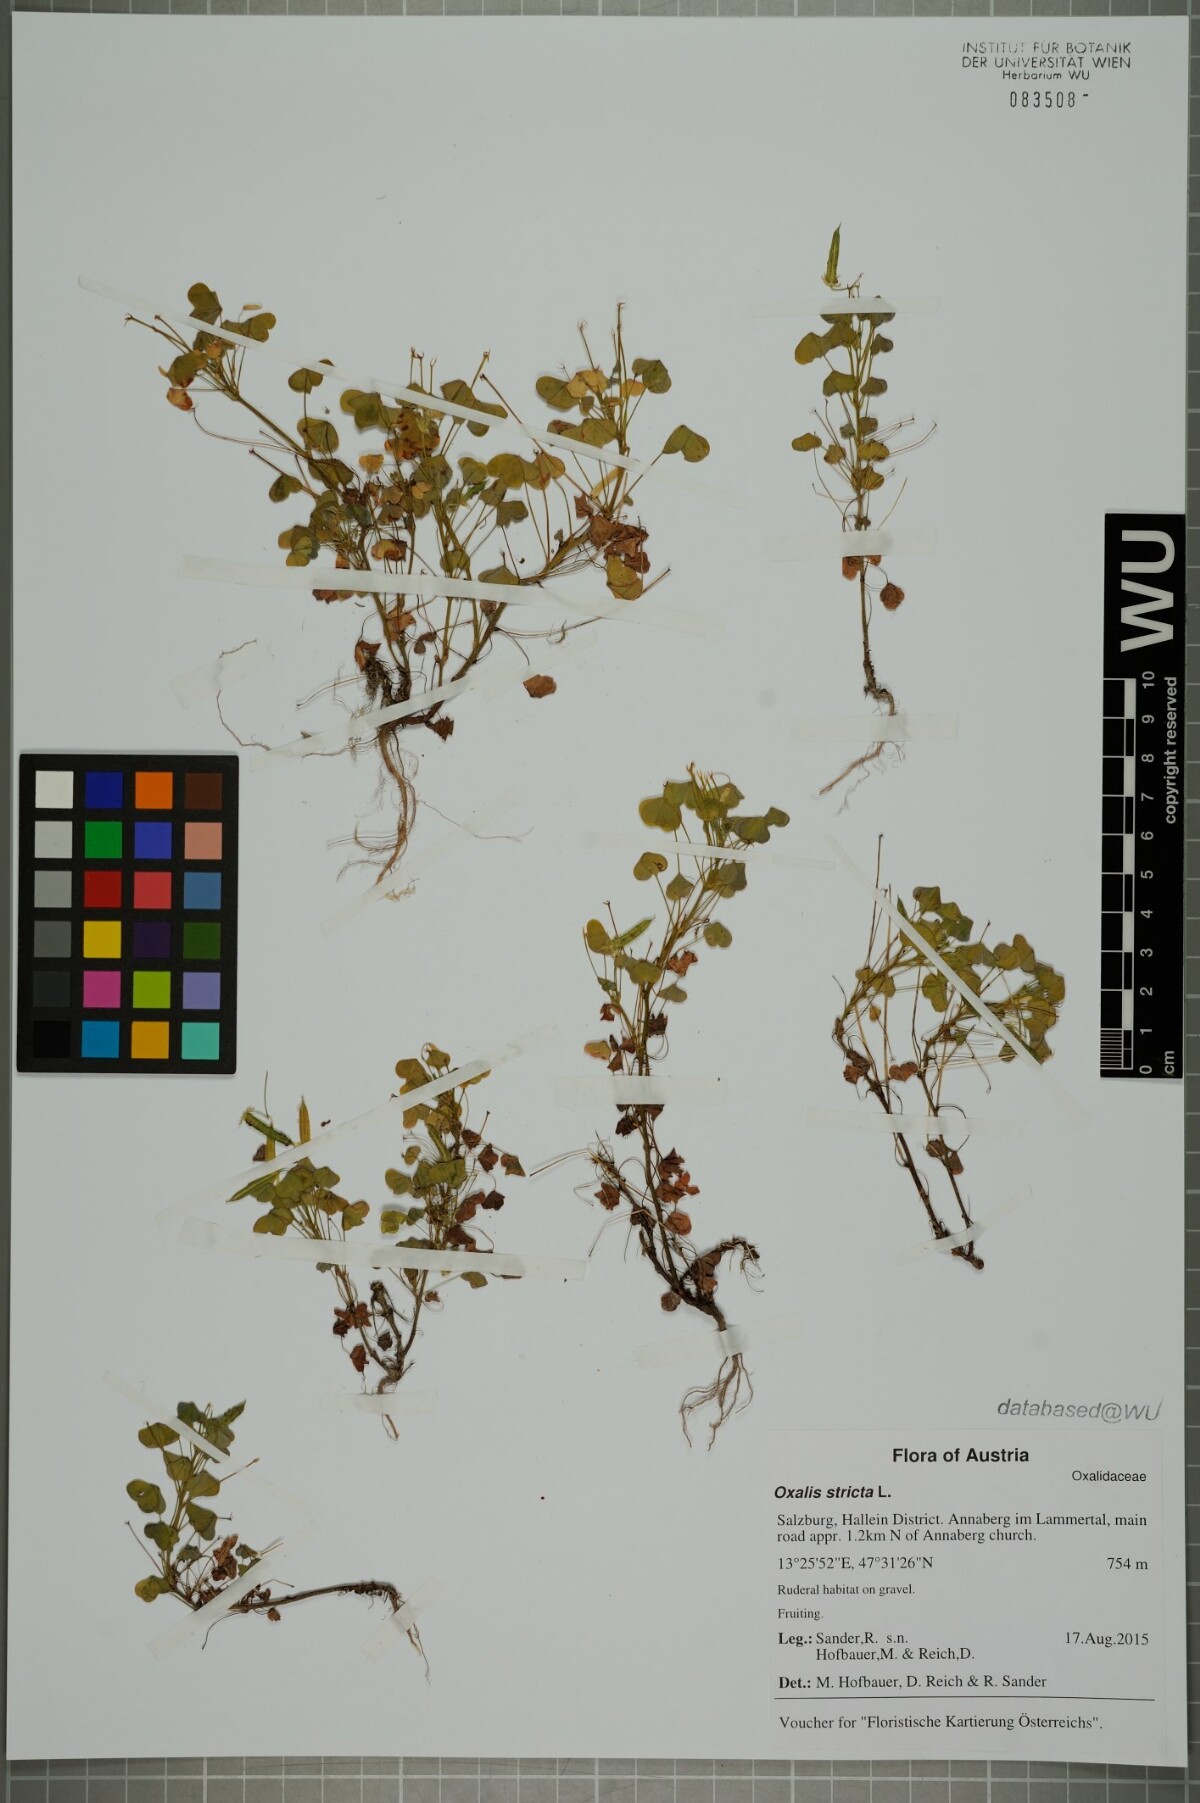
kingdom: Plantae
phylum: Tracheophyta
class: Magnoliopsida
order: Oxalidales
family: Oxalidaceae
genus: Oxalis
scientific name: Oxalis stricta
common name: Upright yellow-sorrel
